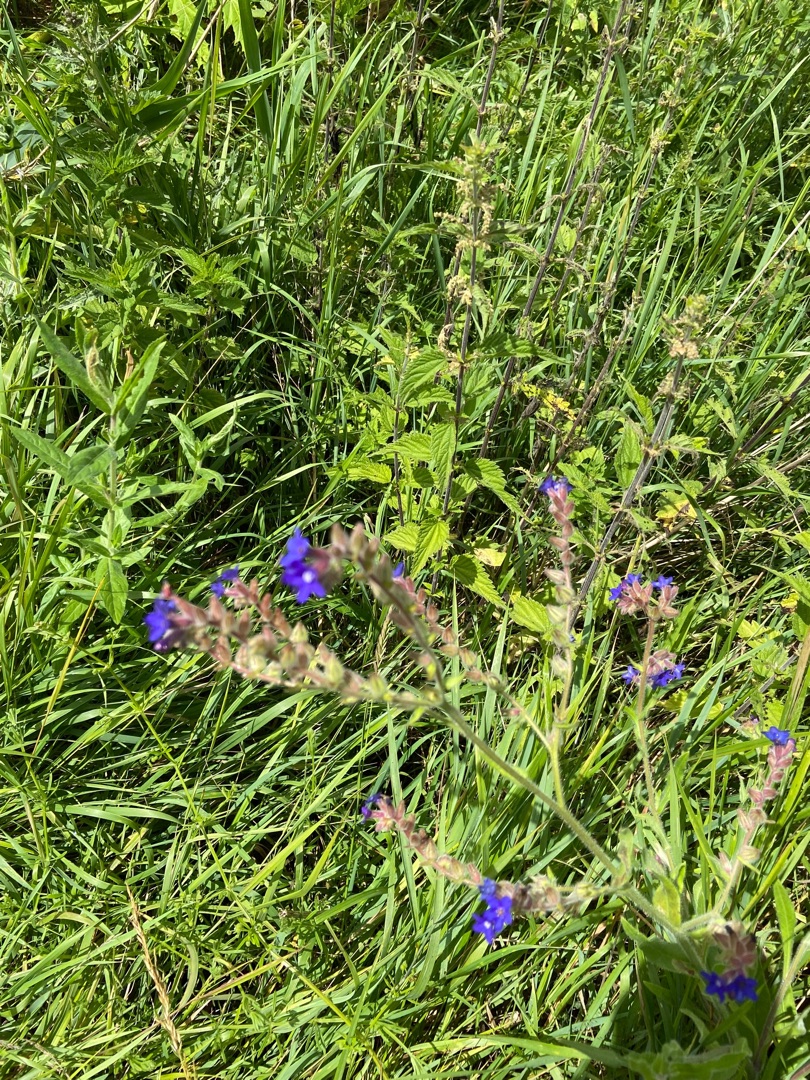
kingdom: Plantae
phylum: Tracheophyta
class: Magnoliopsida
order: Boraginales
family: Boraginaceae
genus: Anchusa
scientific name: Anchusa officinalis
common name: Læge-oksetunge
